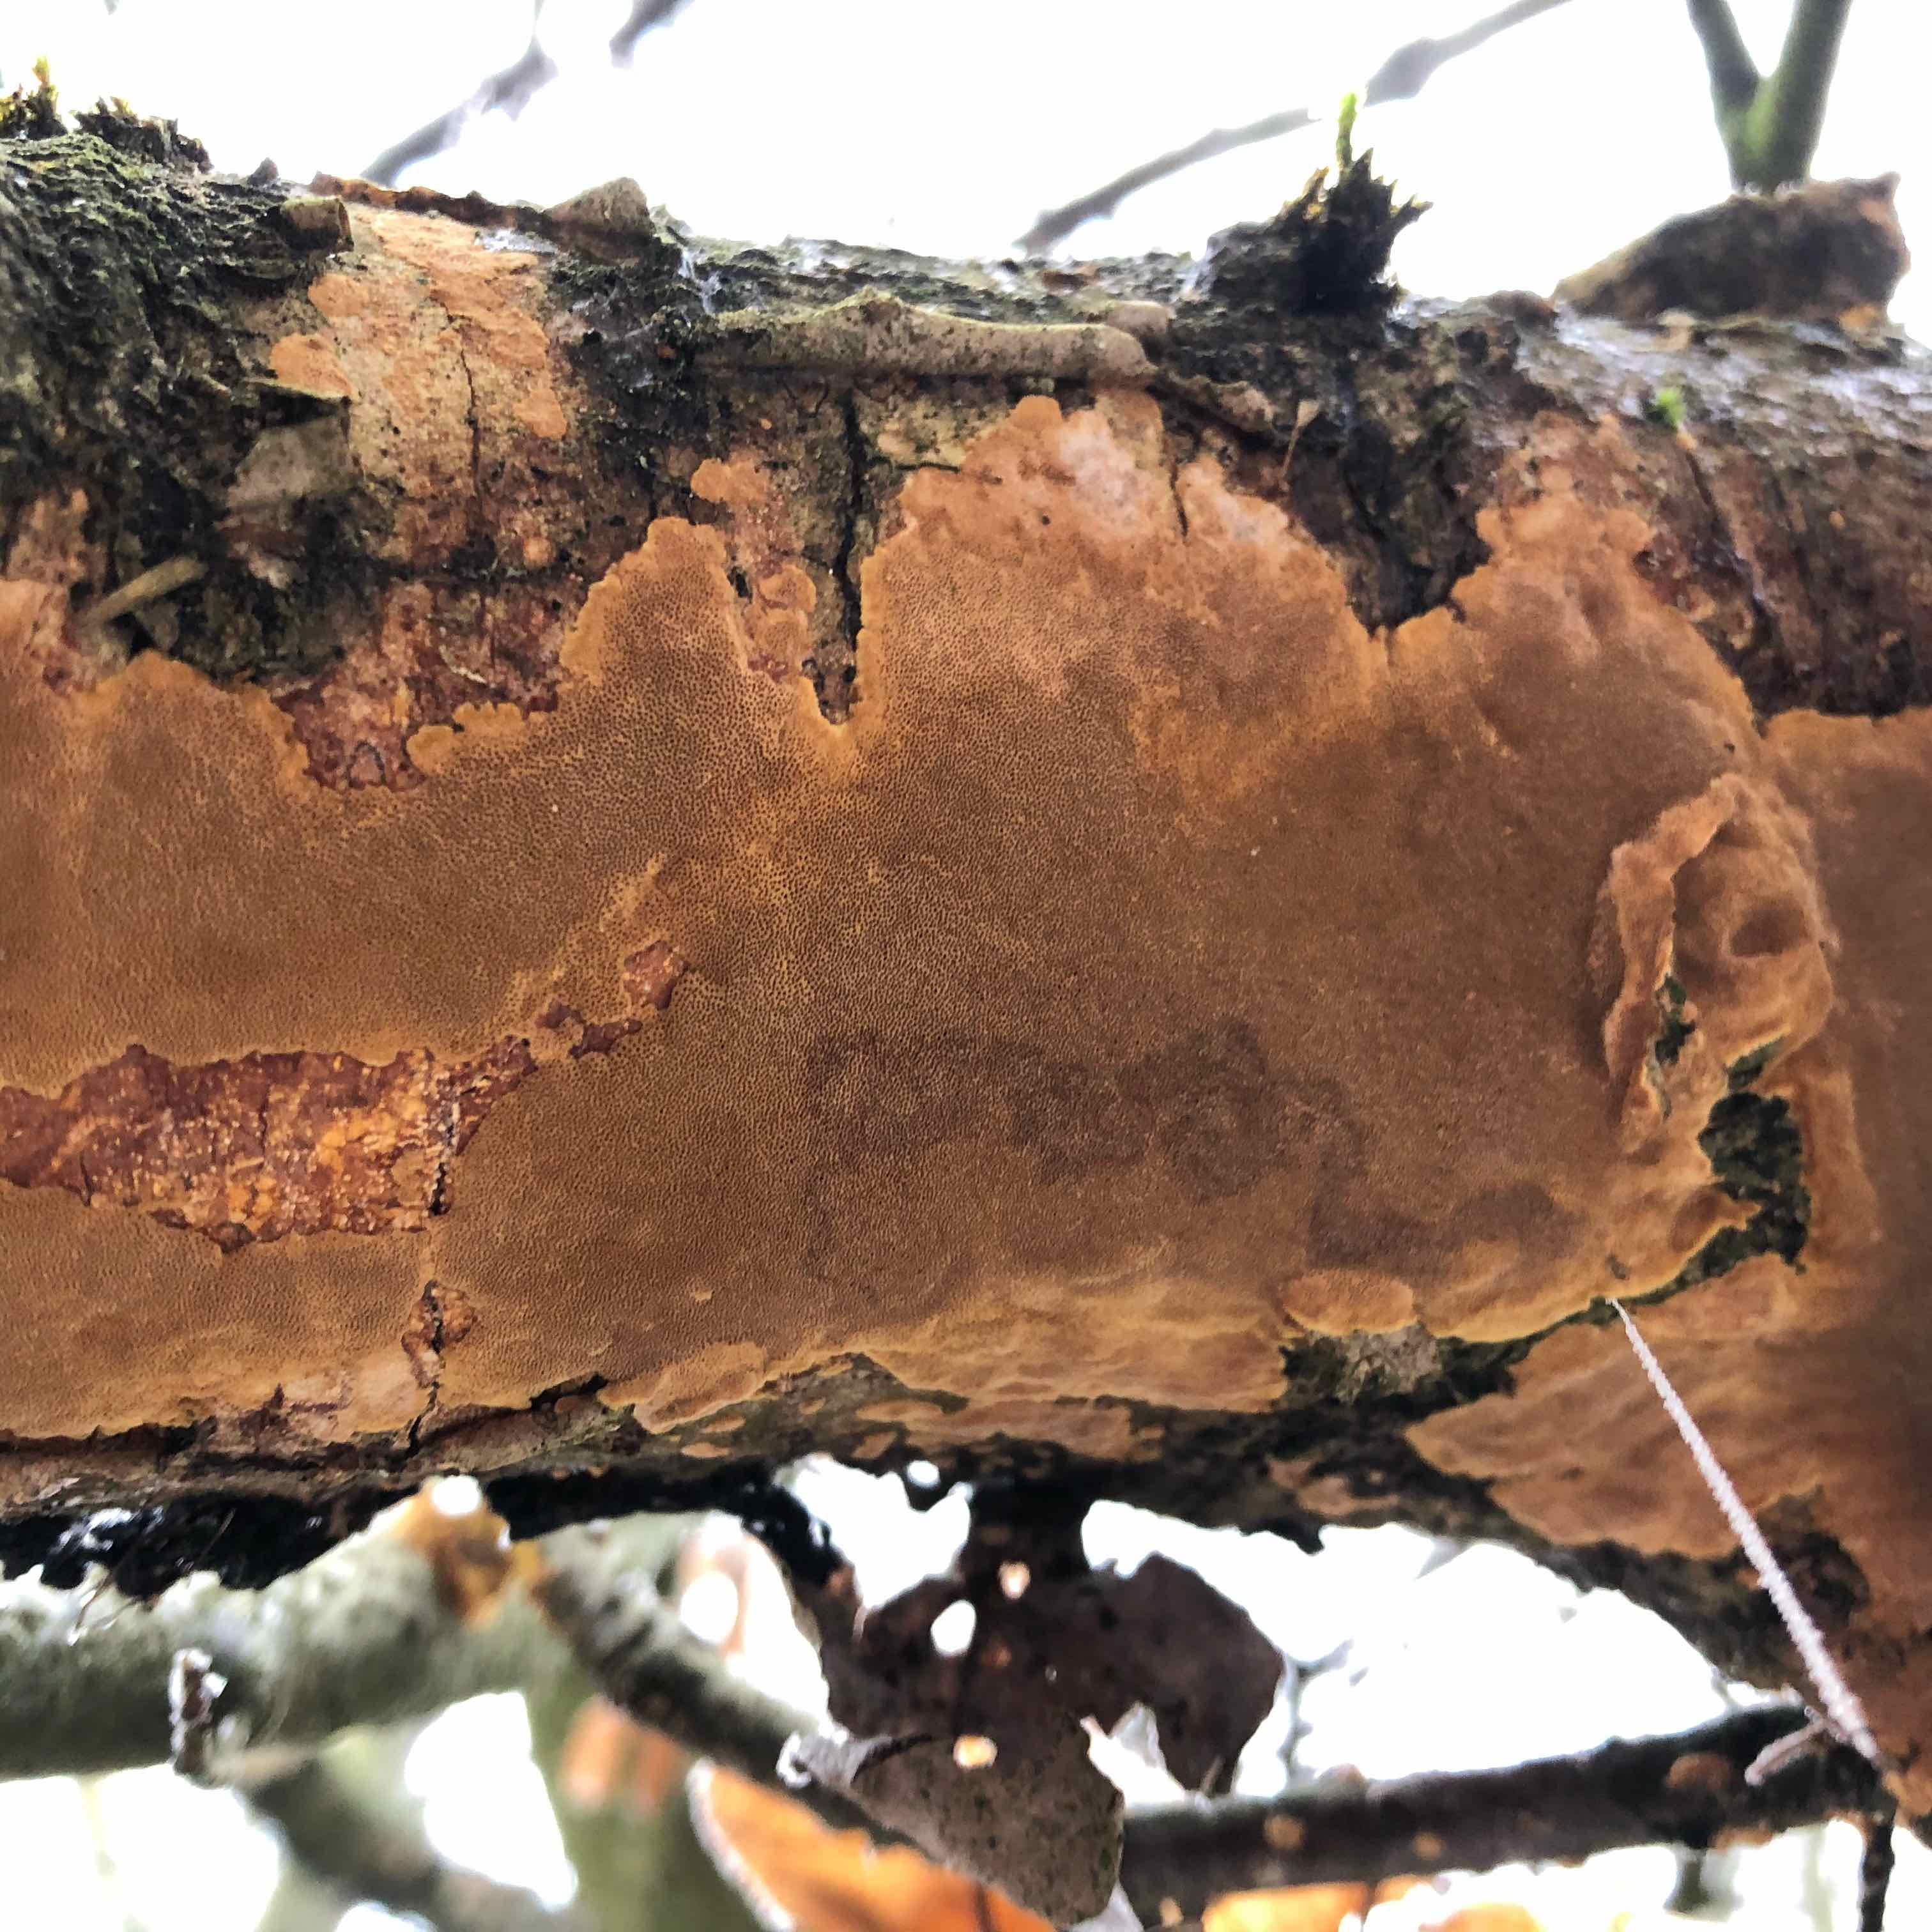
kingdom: Fungi
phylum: Basidiomycota
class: Agaricomycetes
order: Hymenochaetales
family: Hymenochaetaceae
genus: Fuscoporia
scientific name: Fuscoporia ferrea
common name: skorpe-ildporesvamp
